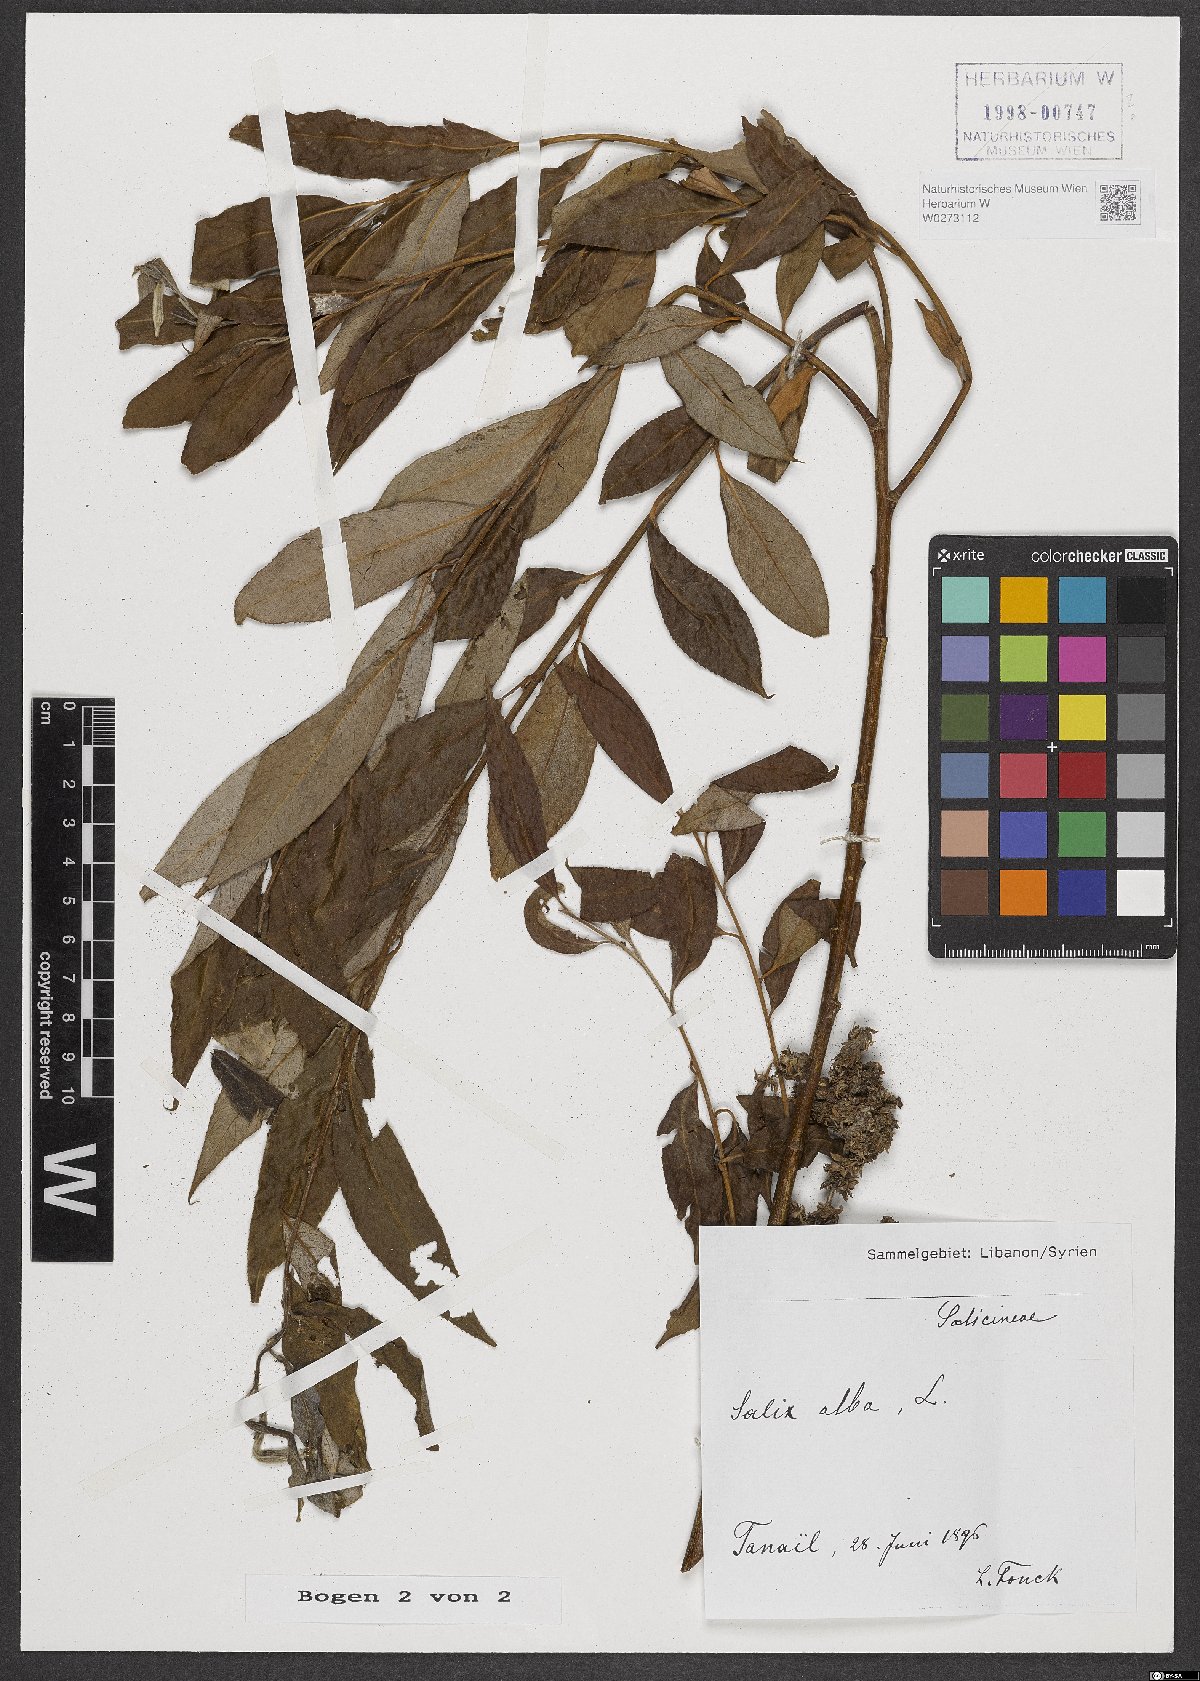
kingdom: Plantae
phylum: Tracheophyta
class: Magnoliopsida
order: Malpighiales
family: Salicaceae
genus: Salix
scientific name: Salix alba
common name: White willow
